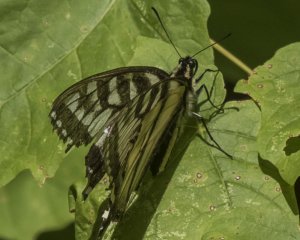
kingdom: Animalia
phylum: Arthropoda
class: Insecta
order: Lepidoptera
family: Papilionidae
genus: Pterourus
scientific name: Pterourus canadensis
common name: Canadian Tiger Swallowtail
